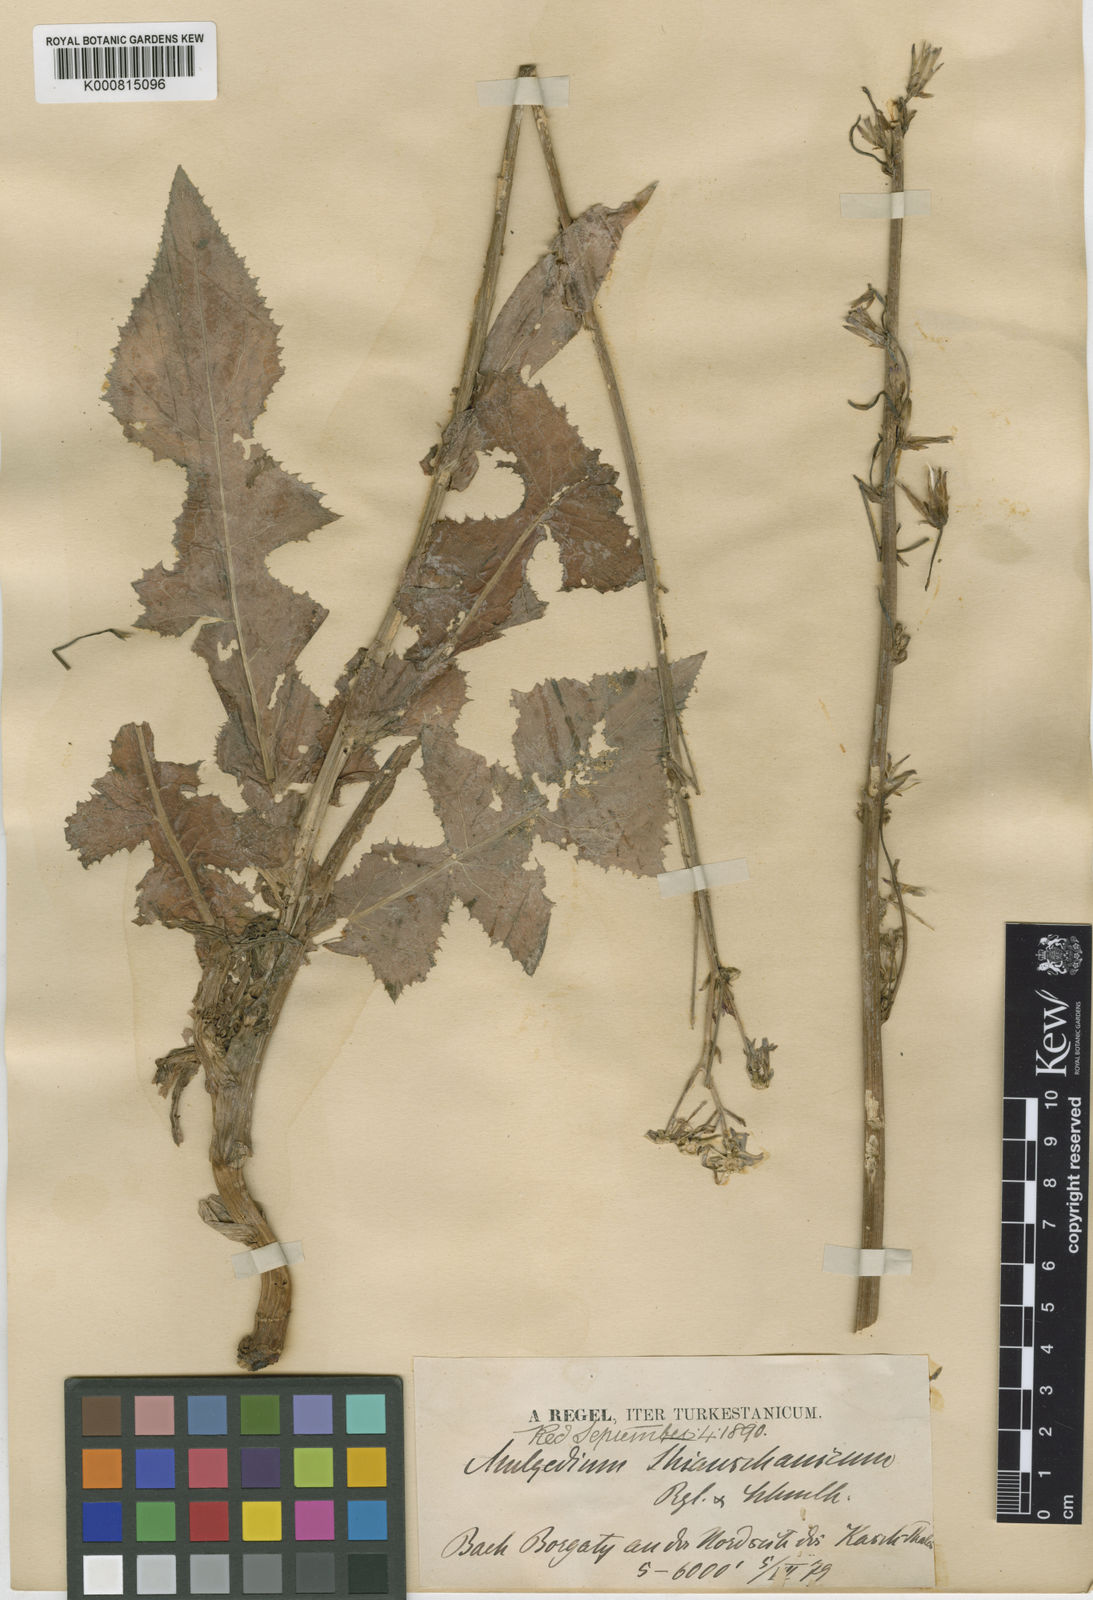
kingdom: Plantae
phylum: Tracheophyta
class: Magnoliopsida
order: Asterales
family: Asteraceae
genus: Cicerbita
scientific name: Cicerbita thianschanica
